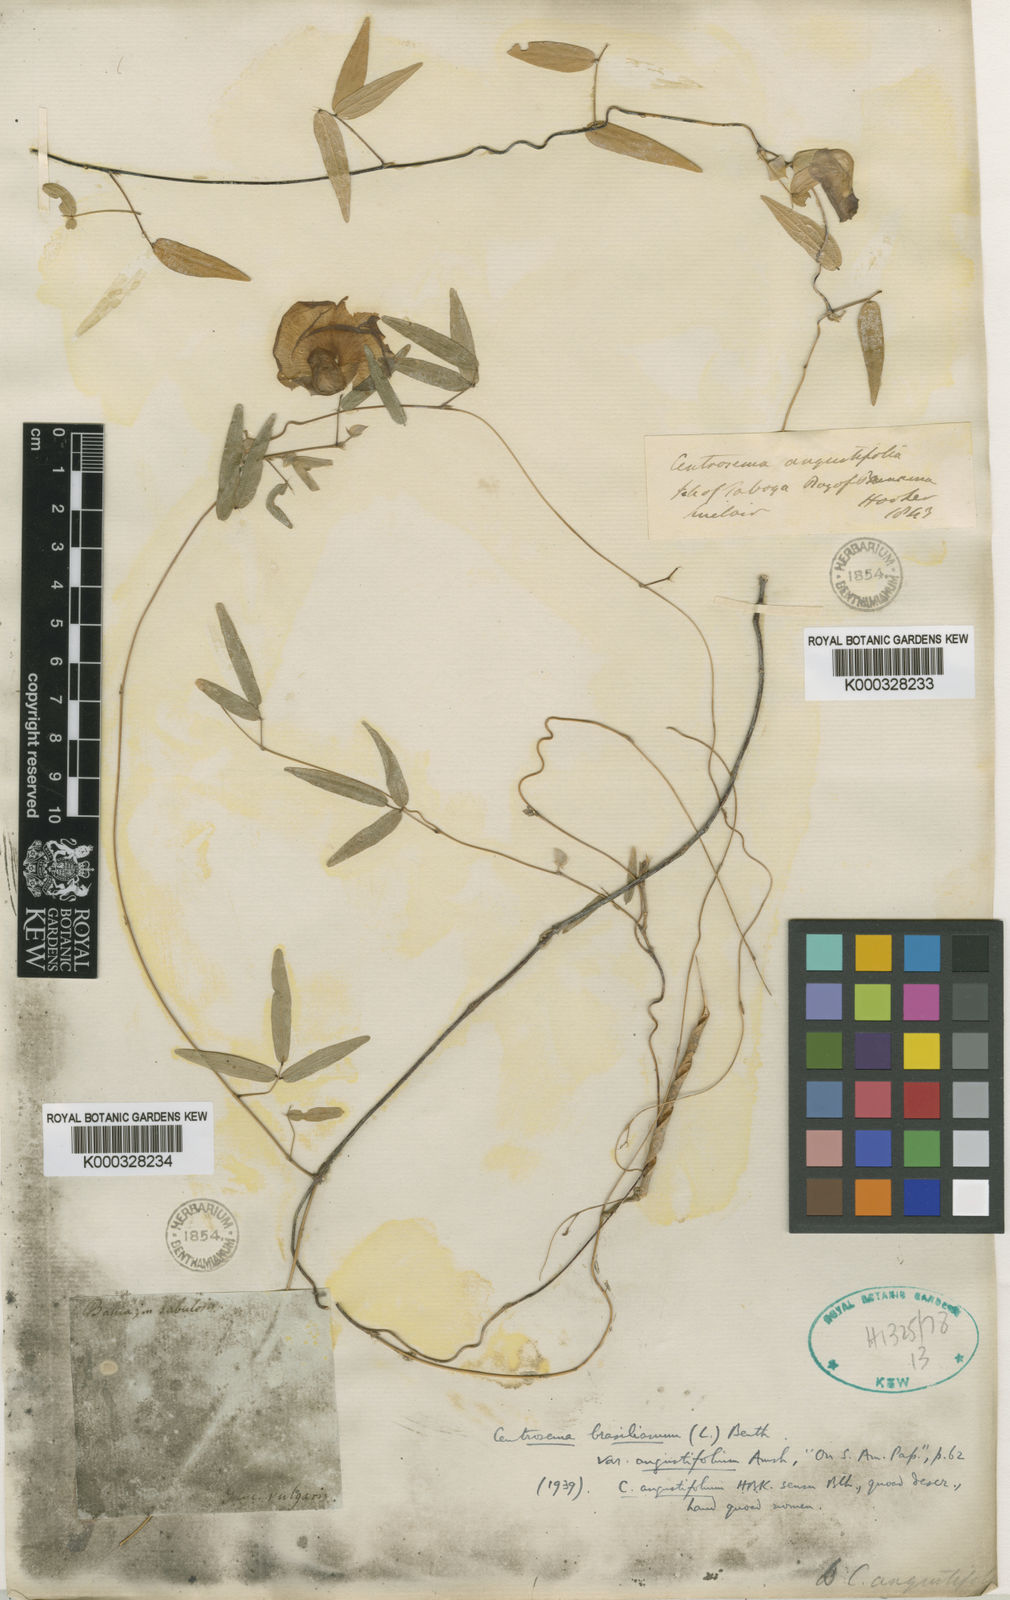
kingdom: Plantae
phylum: Tracheophyta
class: Magnoliopsida
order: Fabales
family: Fabaceae
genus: Centrosema
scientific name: Centrosema angustifolium
